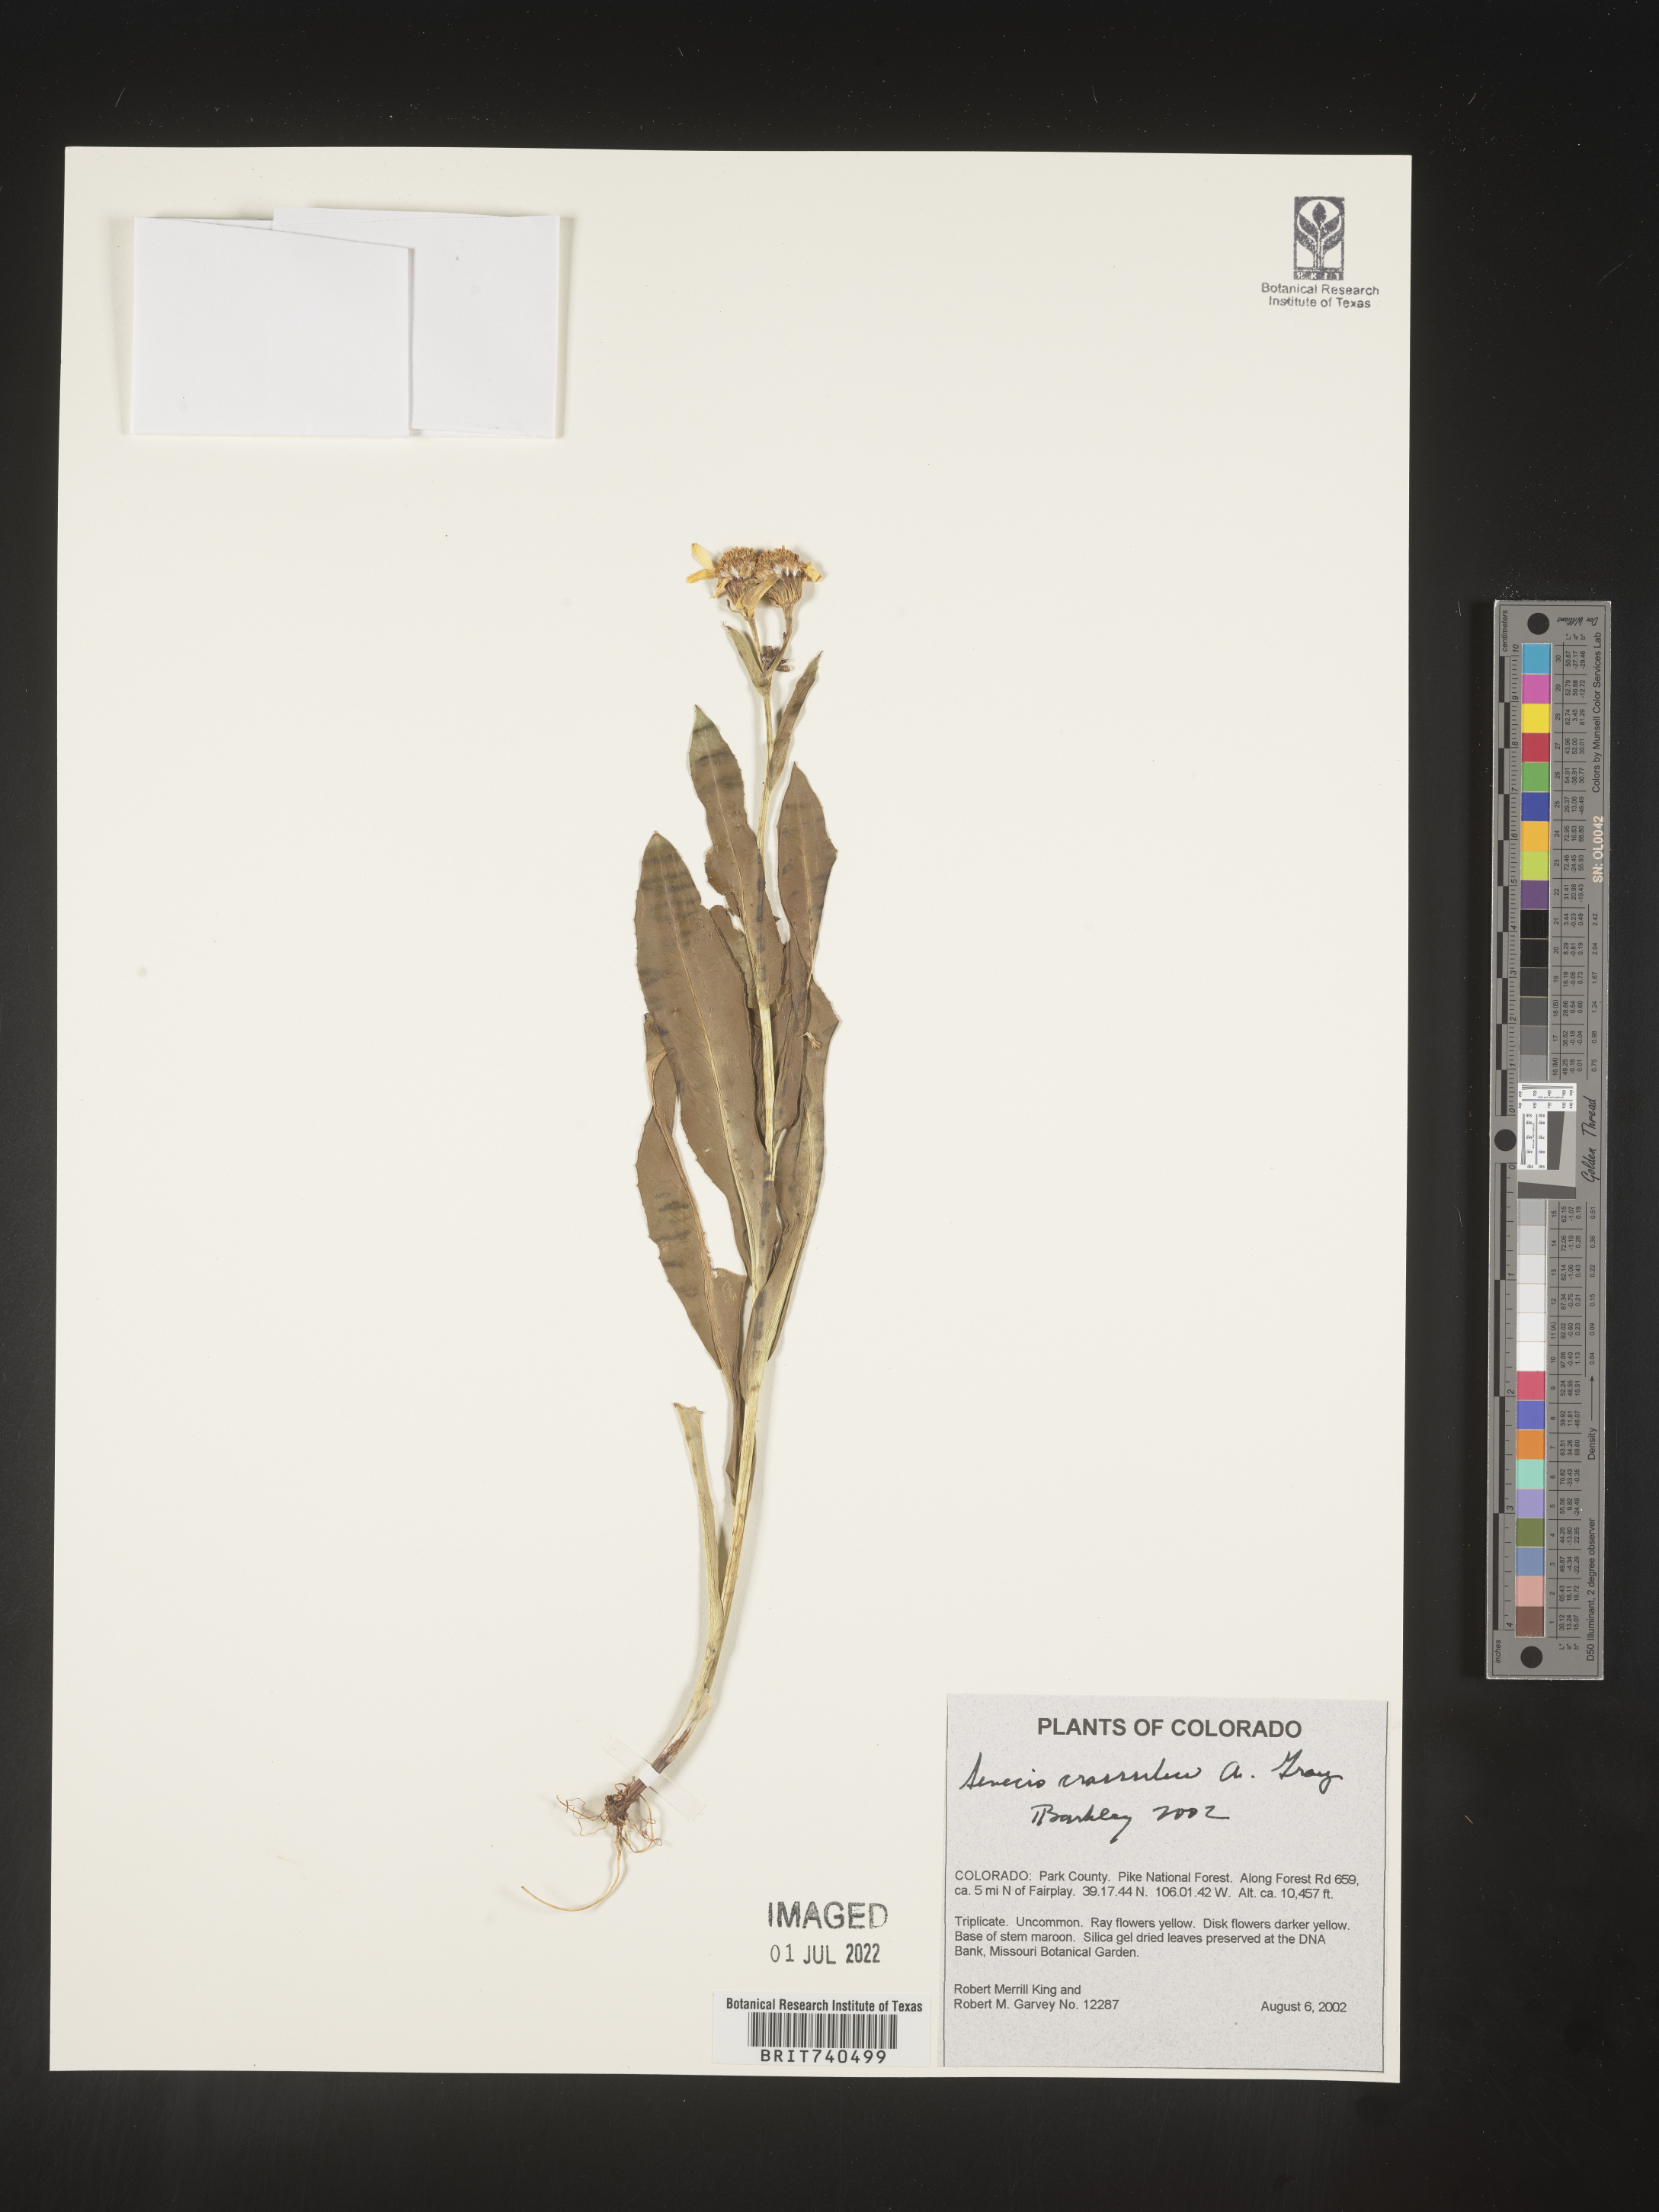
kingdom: Plantae
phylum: Tracheophyta
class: Magnoliopsida
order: Asterales
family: Asteraceae
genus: Senecio
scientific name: Senecio crassulus
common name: Mountain-meadow butterweed
